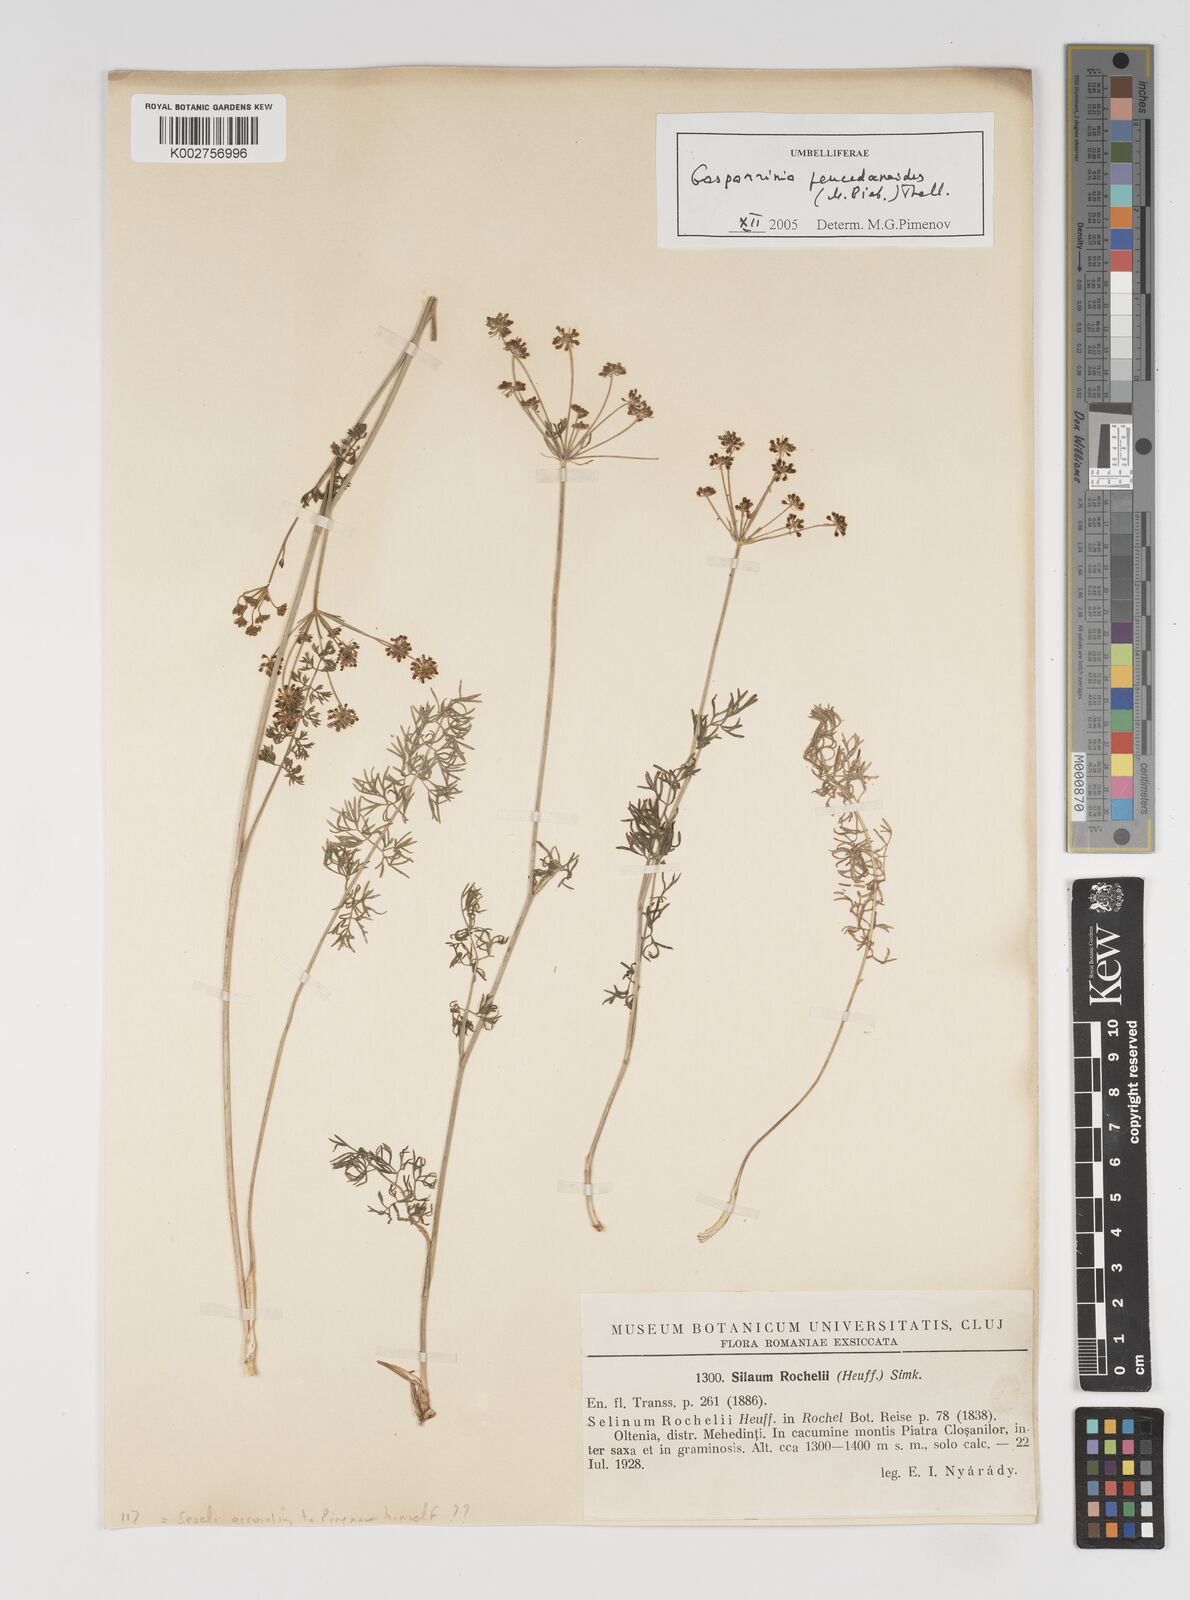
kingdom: Plantae
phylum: Tracheophyta
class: Magnoliopsida
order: Apiales
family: Apiaceae
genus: Gasparinia
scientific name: Gasparinia peucedanoides
